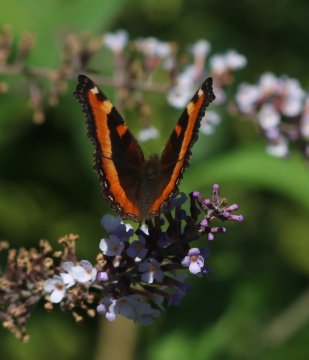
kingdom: Animalia
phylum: Arthropoda
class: Insecta
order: Lepidoptera
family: Nymphalidae
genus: Aglais
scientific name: Aglais milberti
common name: Milbert's Tortoiseshell
